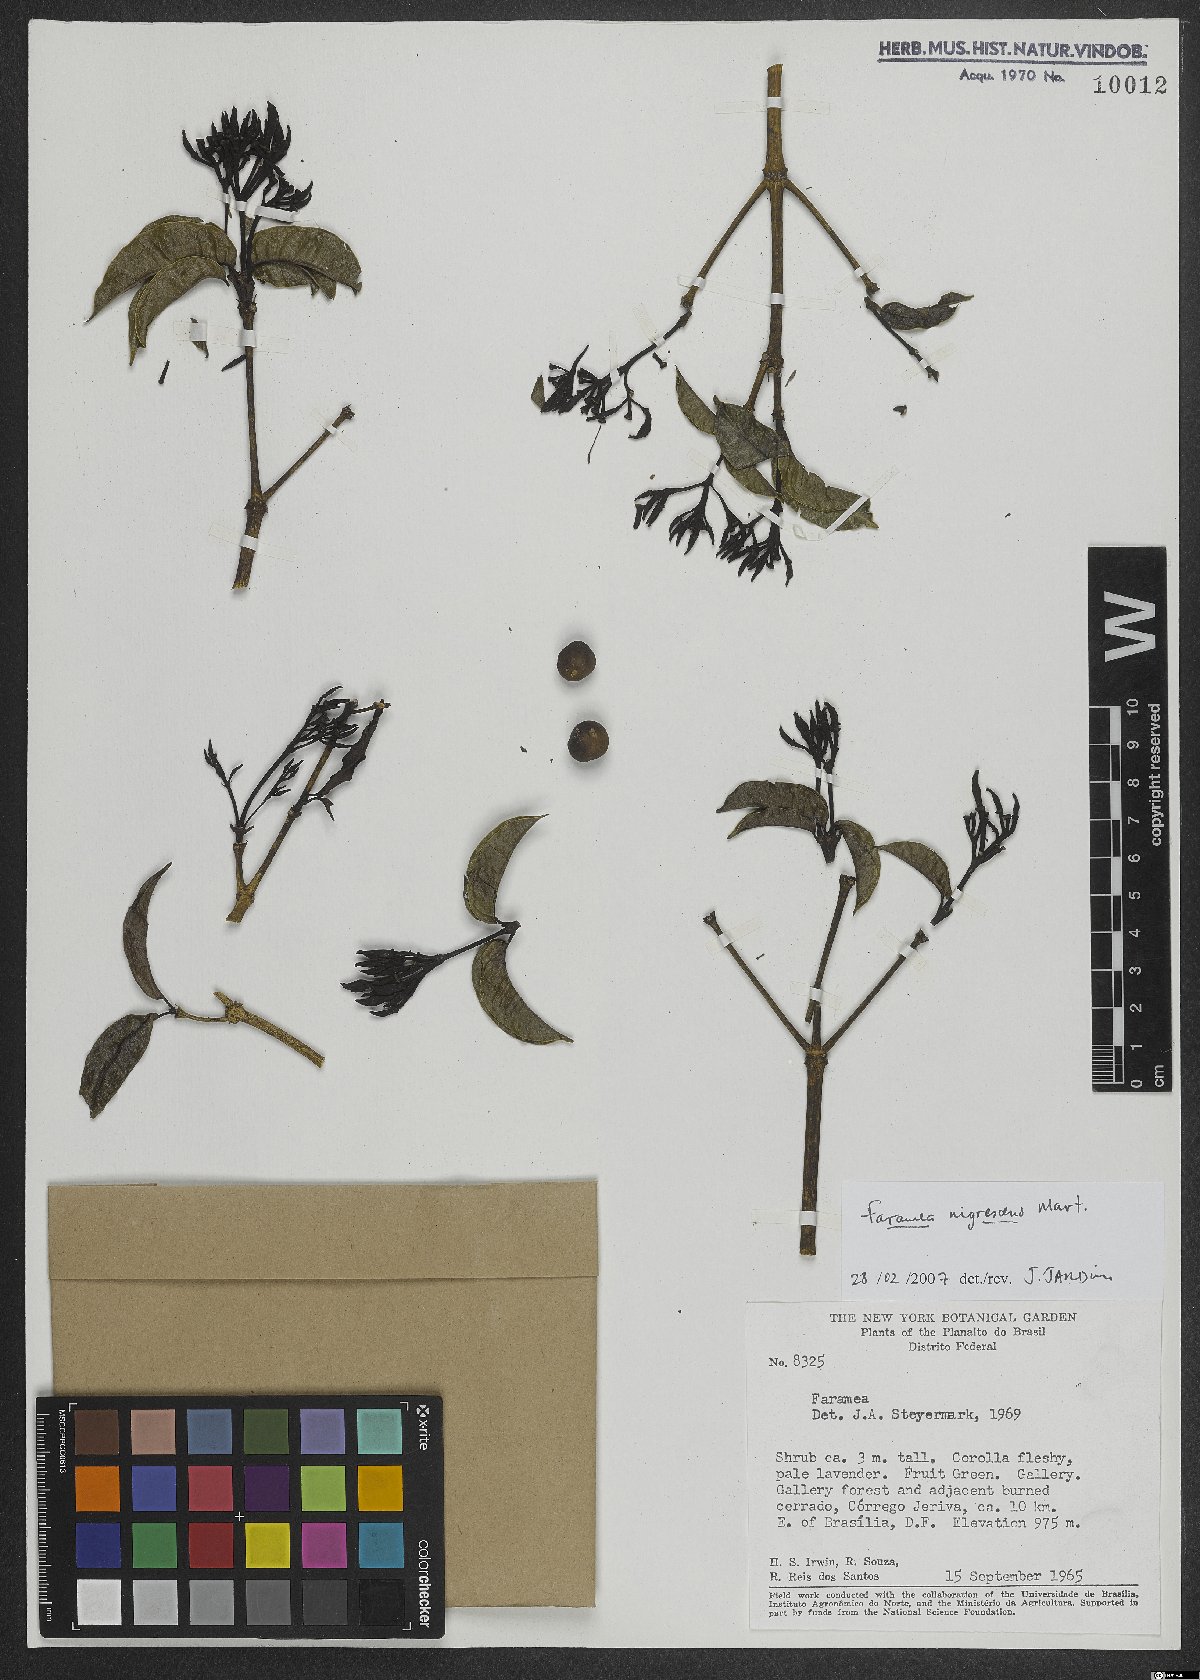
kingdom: Plantae
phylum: Tracheophyta
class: Magnoliopsida
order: Gentianales
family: Rubiaceae
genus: Faramea
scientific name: Faramea nigrescens
